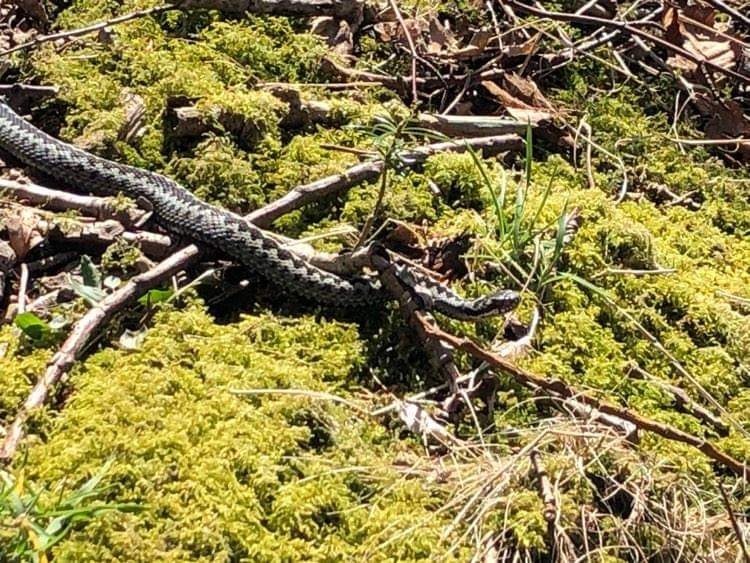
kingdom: Animalia
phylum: Chordata
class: Squamata
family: Viperidae
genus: Vipera
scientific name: Vipera berus
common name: Hugorm
